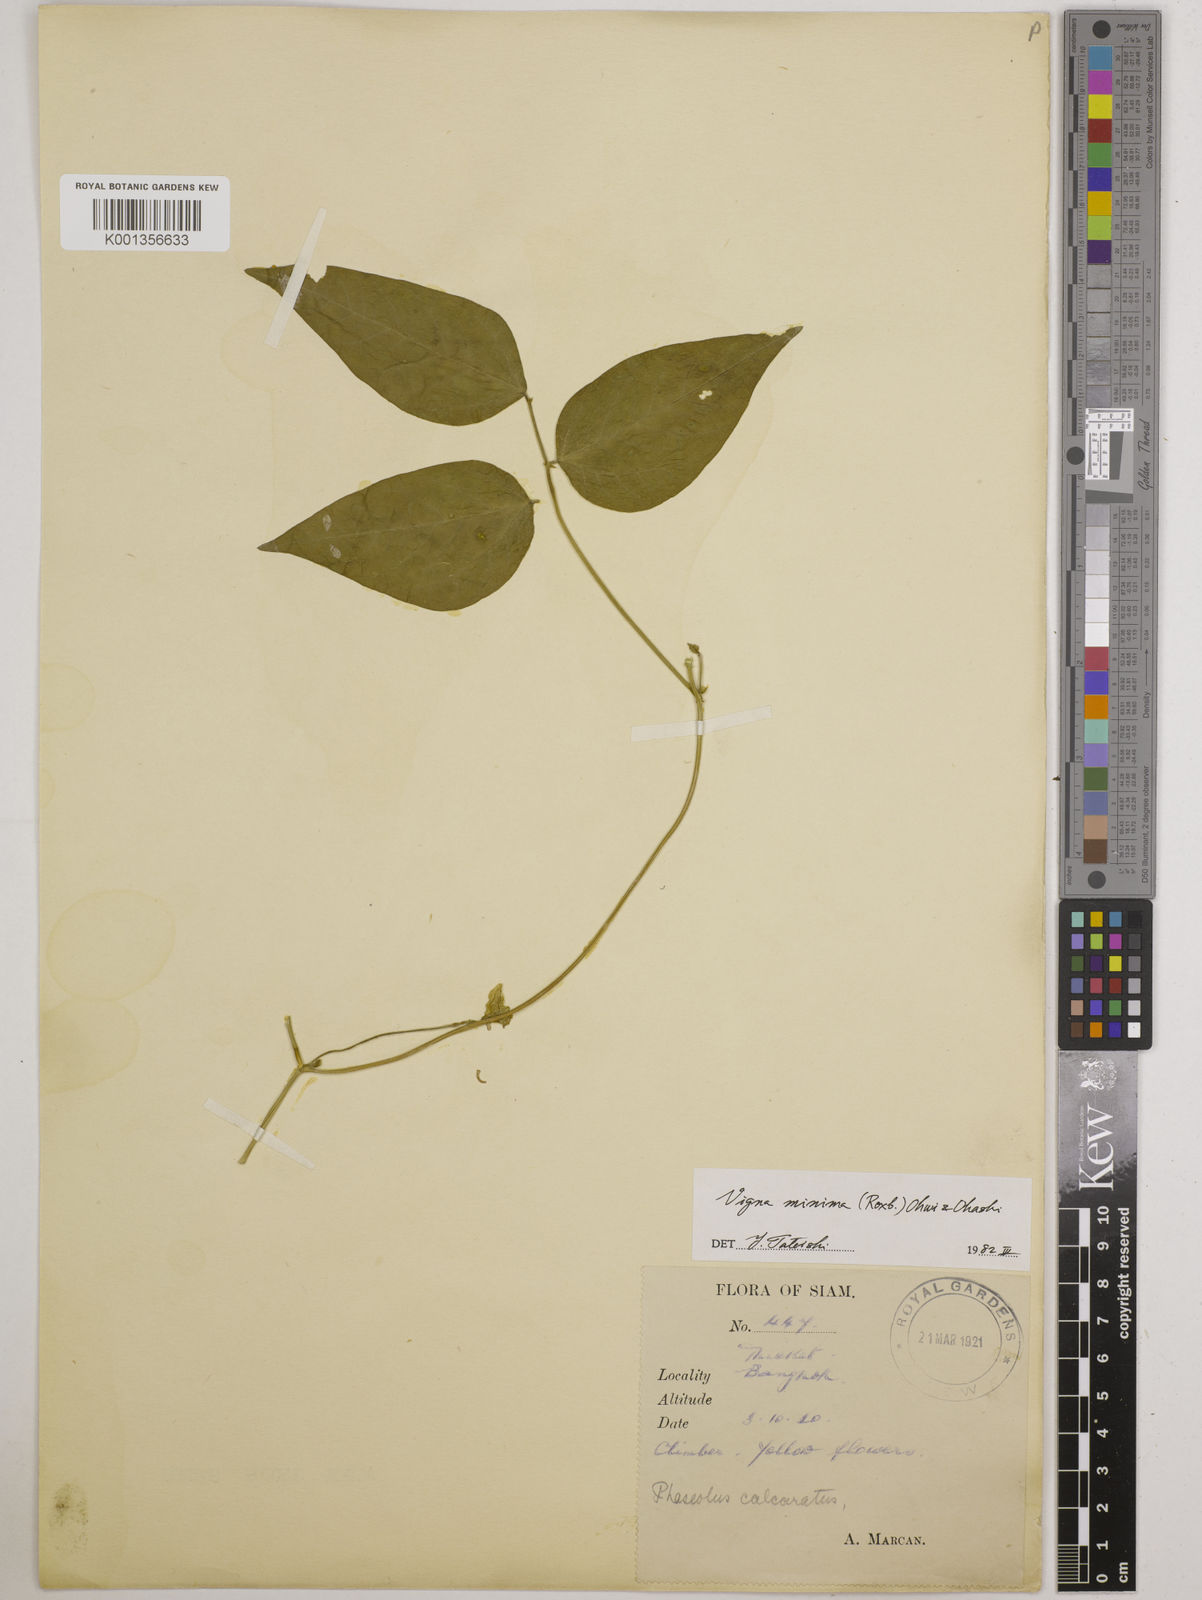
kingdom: Plantae
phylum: Tracheophyta
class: Magnoliopsida
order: Fabales
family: Fabaceae
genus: Vigna
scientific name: Vigna minima
